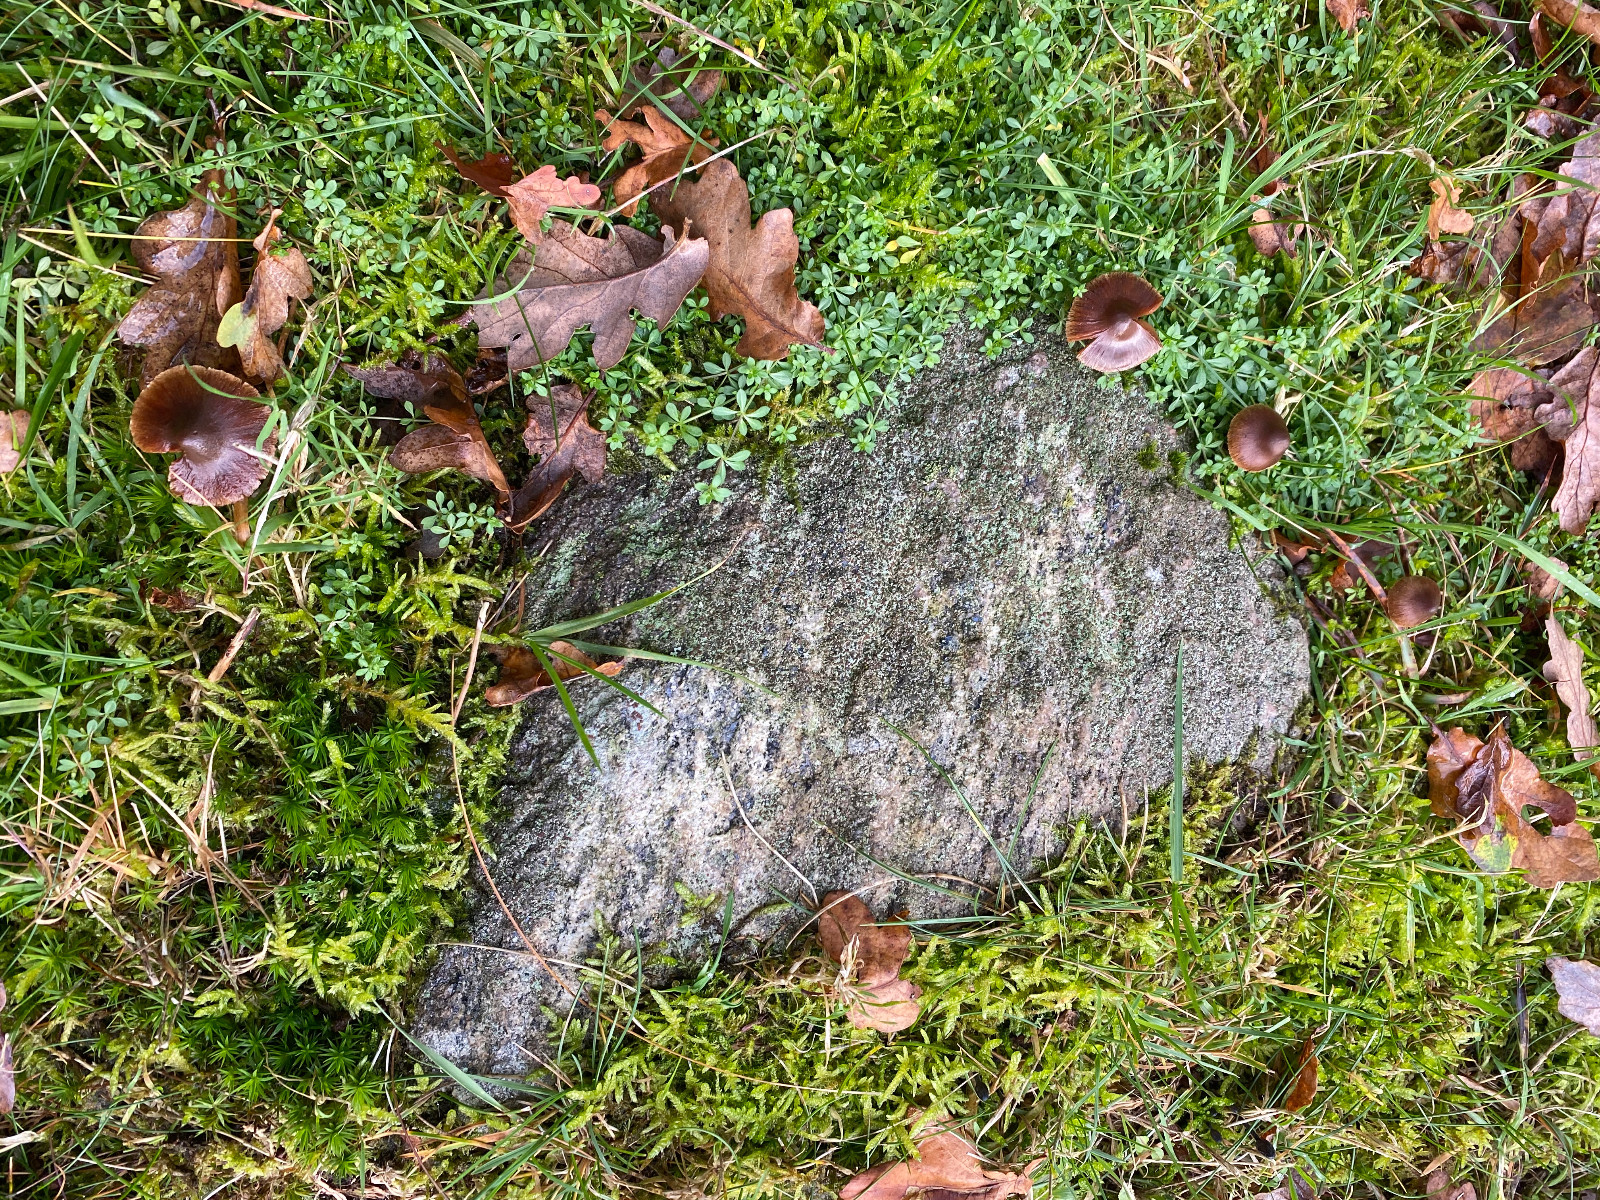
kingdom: Fungi
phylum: Basidiomycota
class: Agaricomycetes
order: Agaricales
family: Cortinariaceae
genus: Cortinarius
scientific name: Cortinarius
